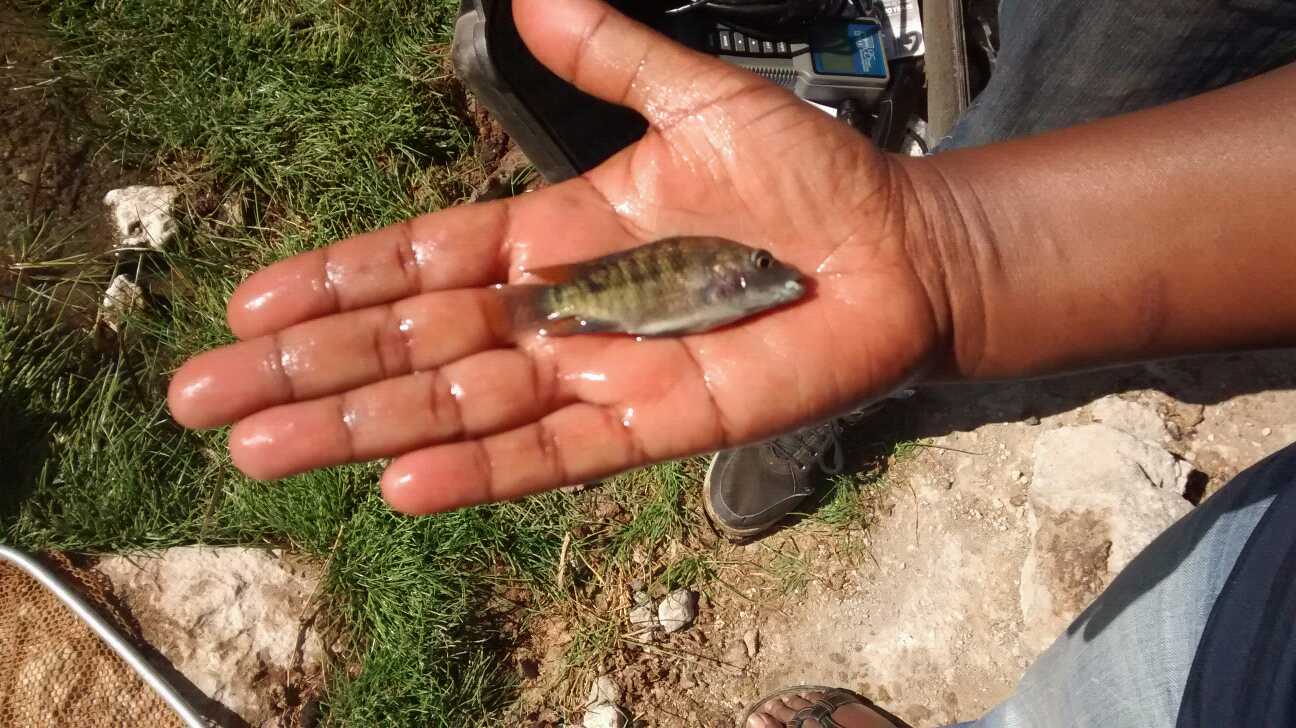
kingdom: Animalia
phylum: Chordata
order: Perciformes
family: Cichlidae
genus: Oreochromis
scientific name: Oreochromis spilurus
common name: Sabaki tilapia
